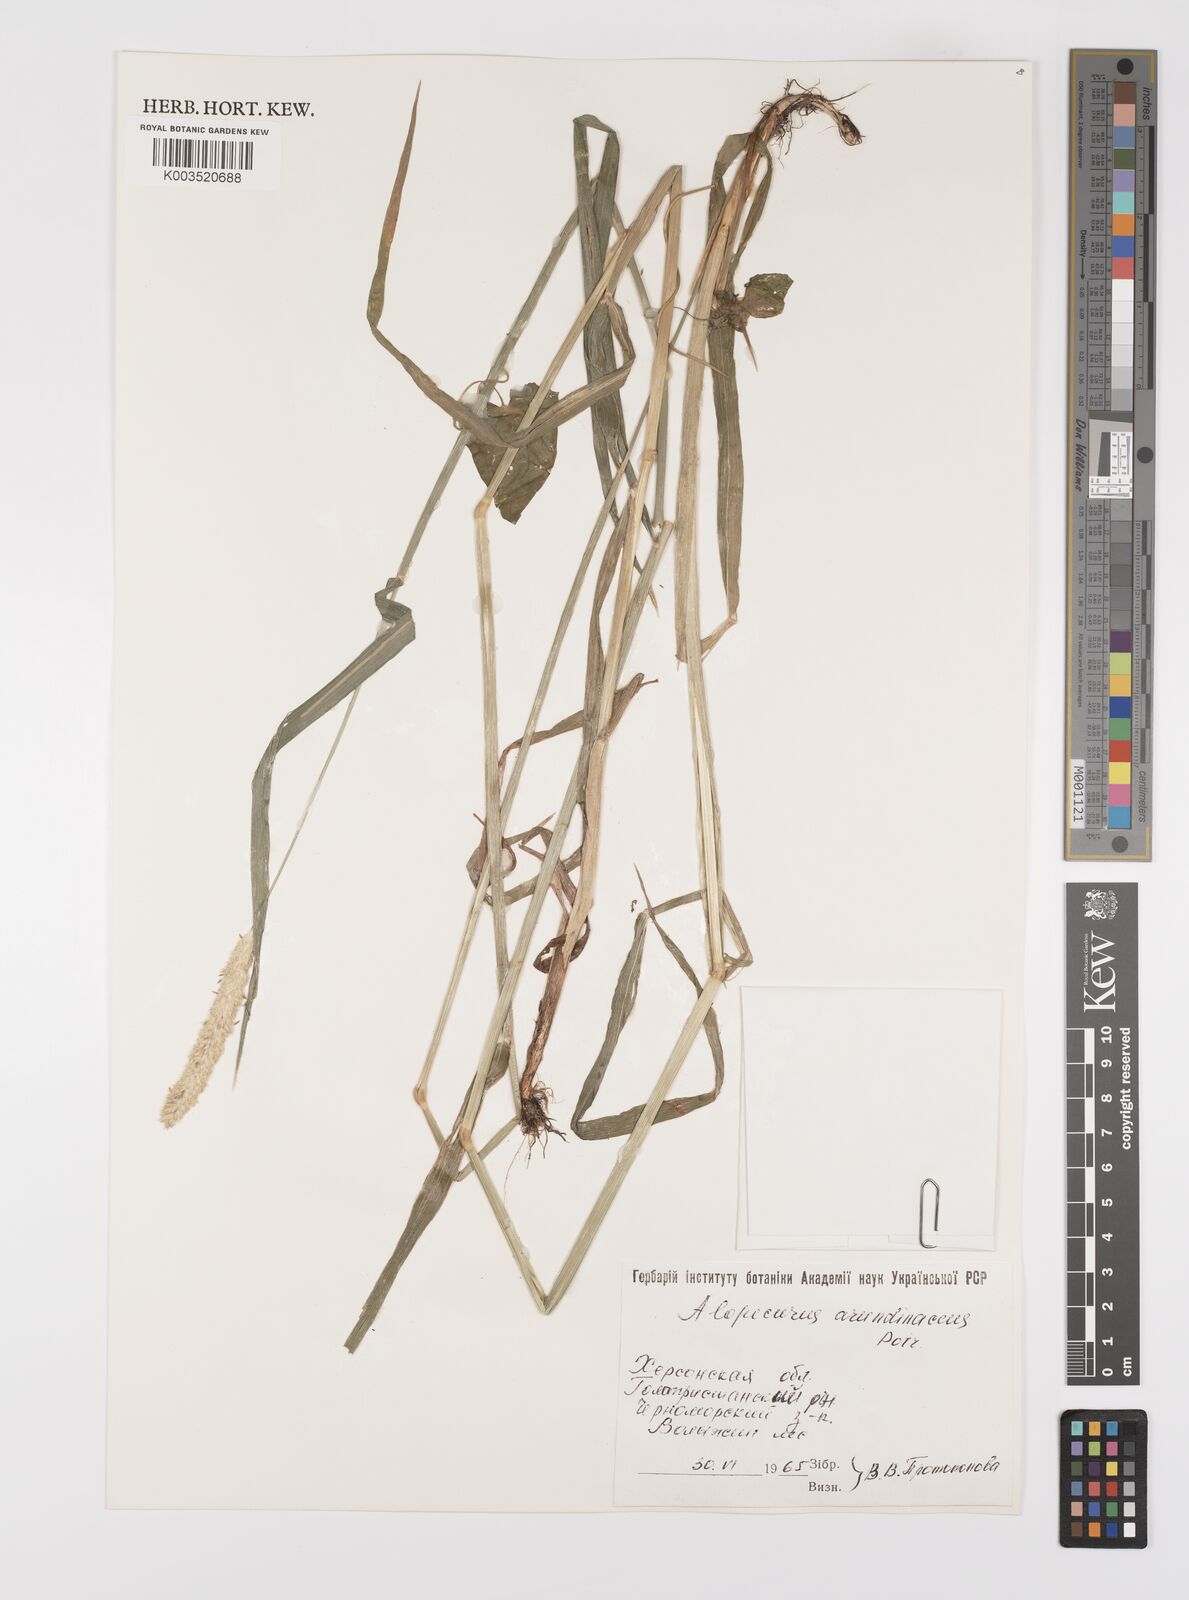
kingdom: Plantae
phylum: Tracheophyta
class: Liliopsida
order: Poales
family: Poaceae
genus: Alopecurus
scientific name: Alopecurus arundinaceus
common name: Creeping meadow foxtail
